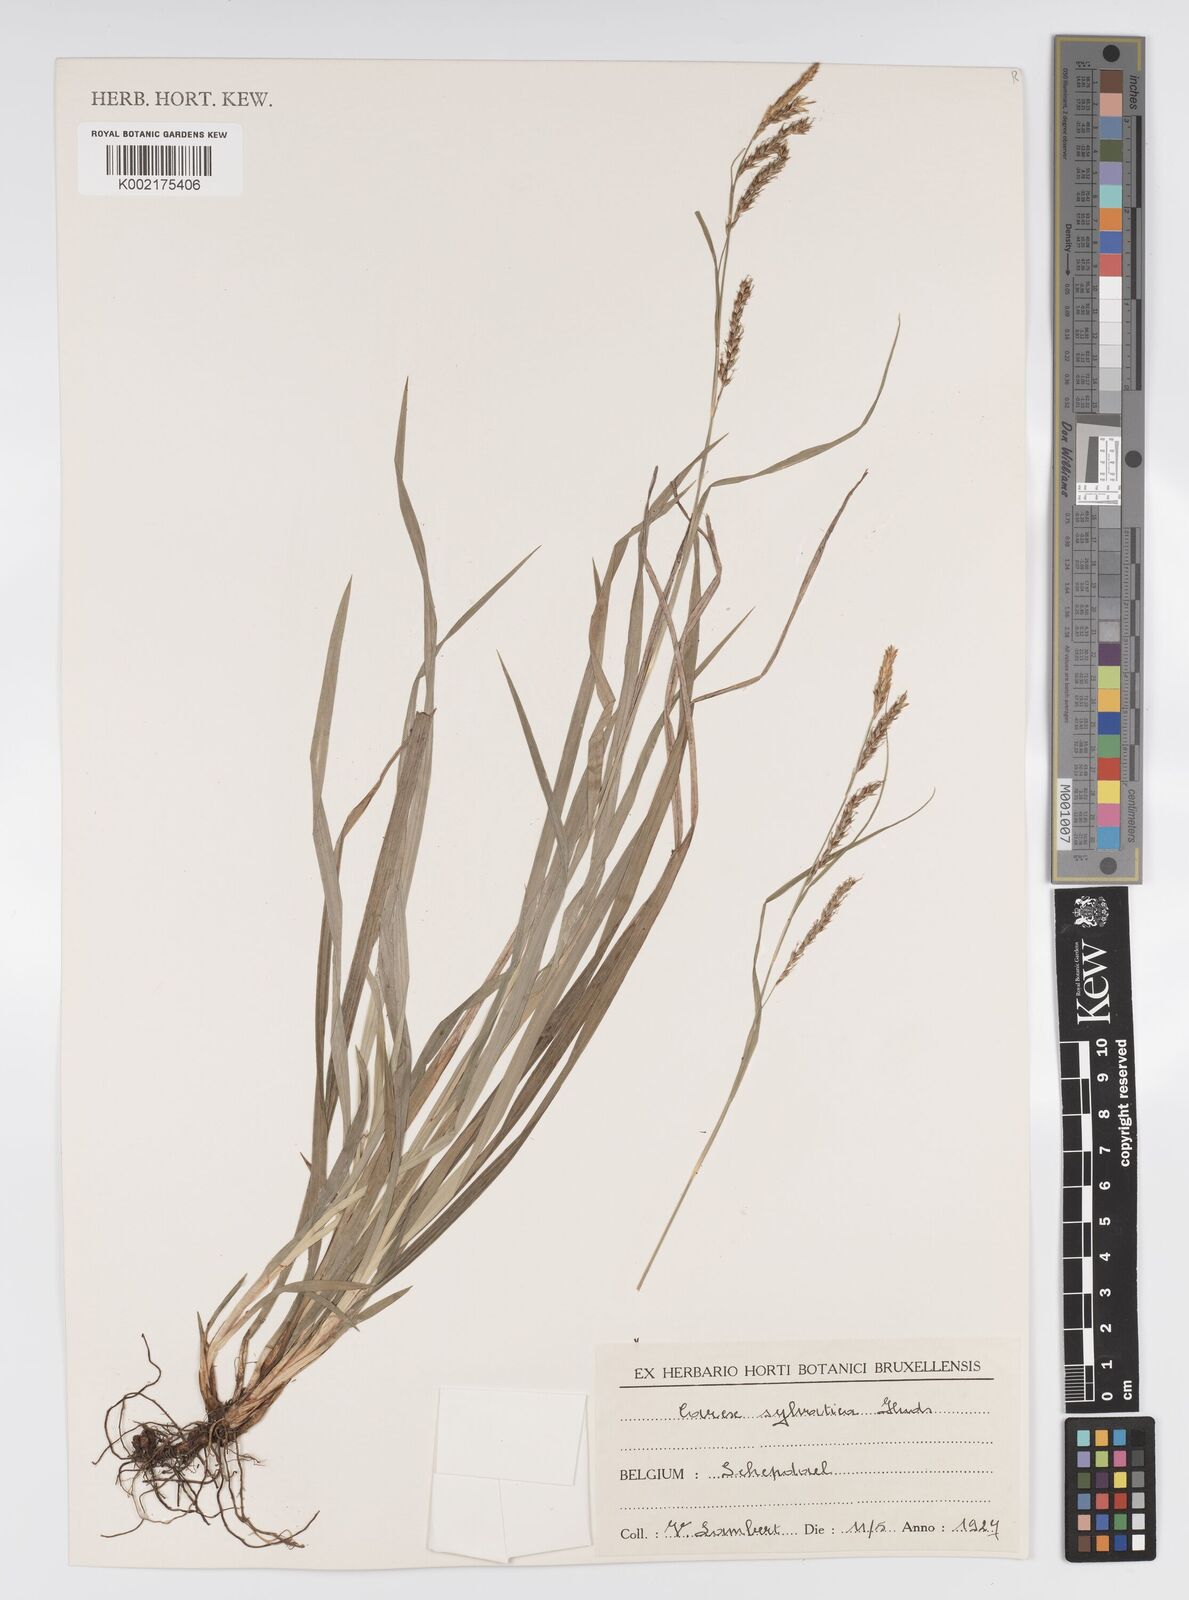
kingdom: Plantae
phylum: Tracheophyta
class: Liliopsida
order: Poales
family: Cyperaceae
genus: Carex
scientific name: Carex sylvatica
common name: Wood-sedge
